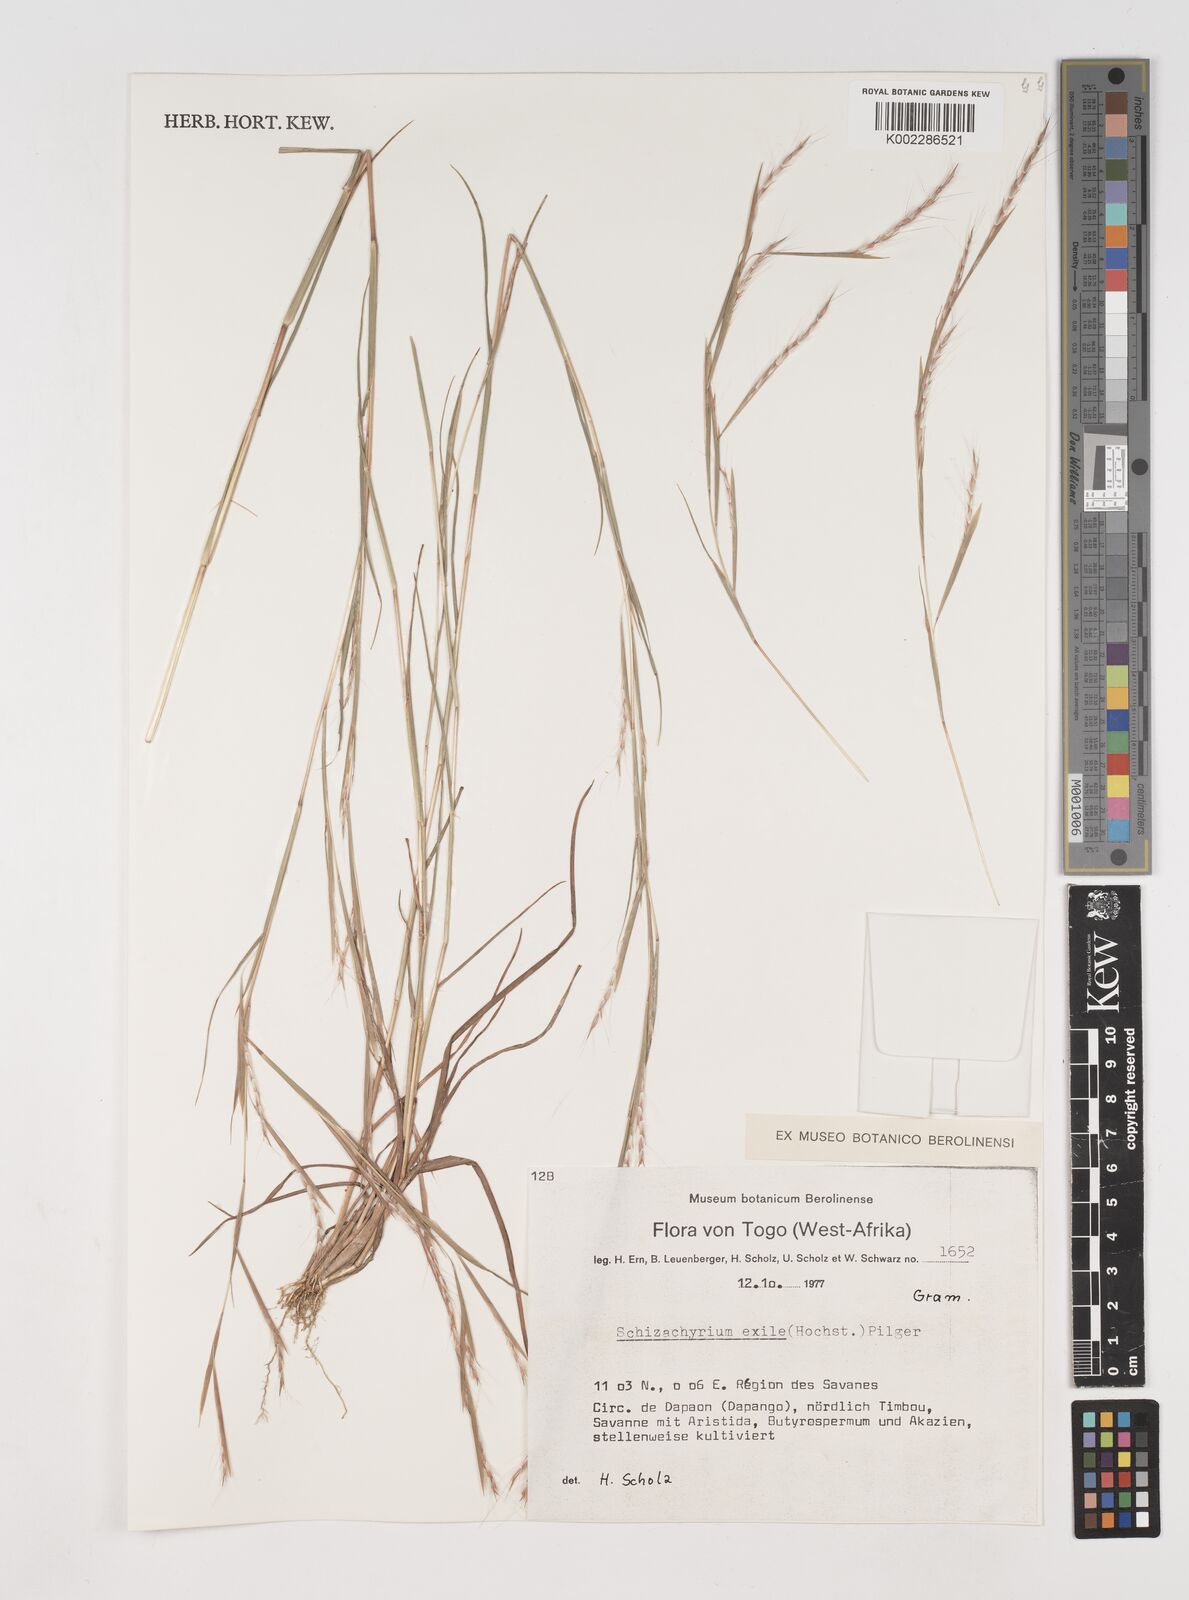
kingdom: Plantae
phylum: Tracheophyta
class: Liliopsida
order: Poales
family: Poaceae
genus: Schizachyrium
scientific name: Schizachyrium exile
